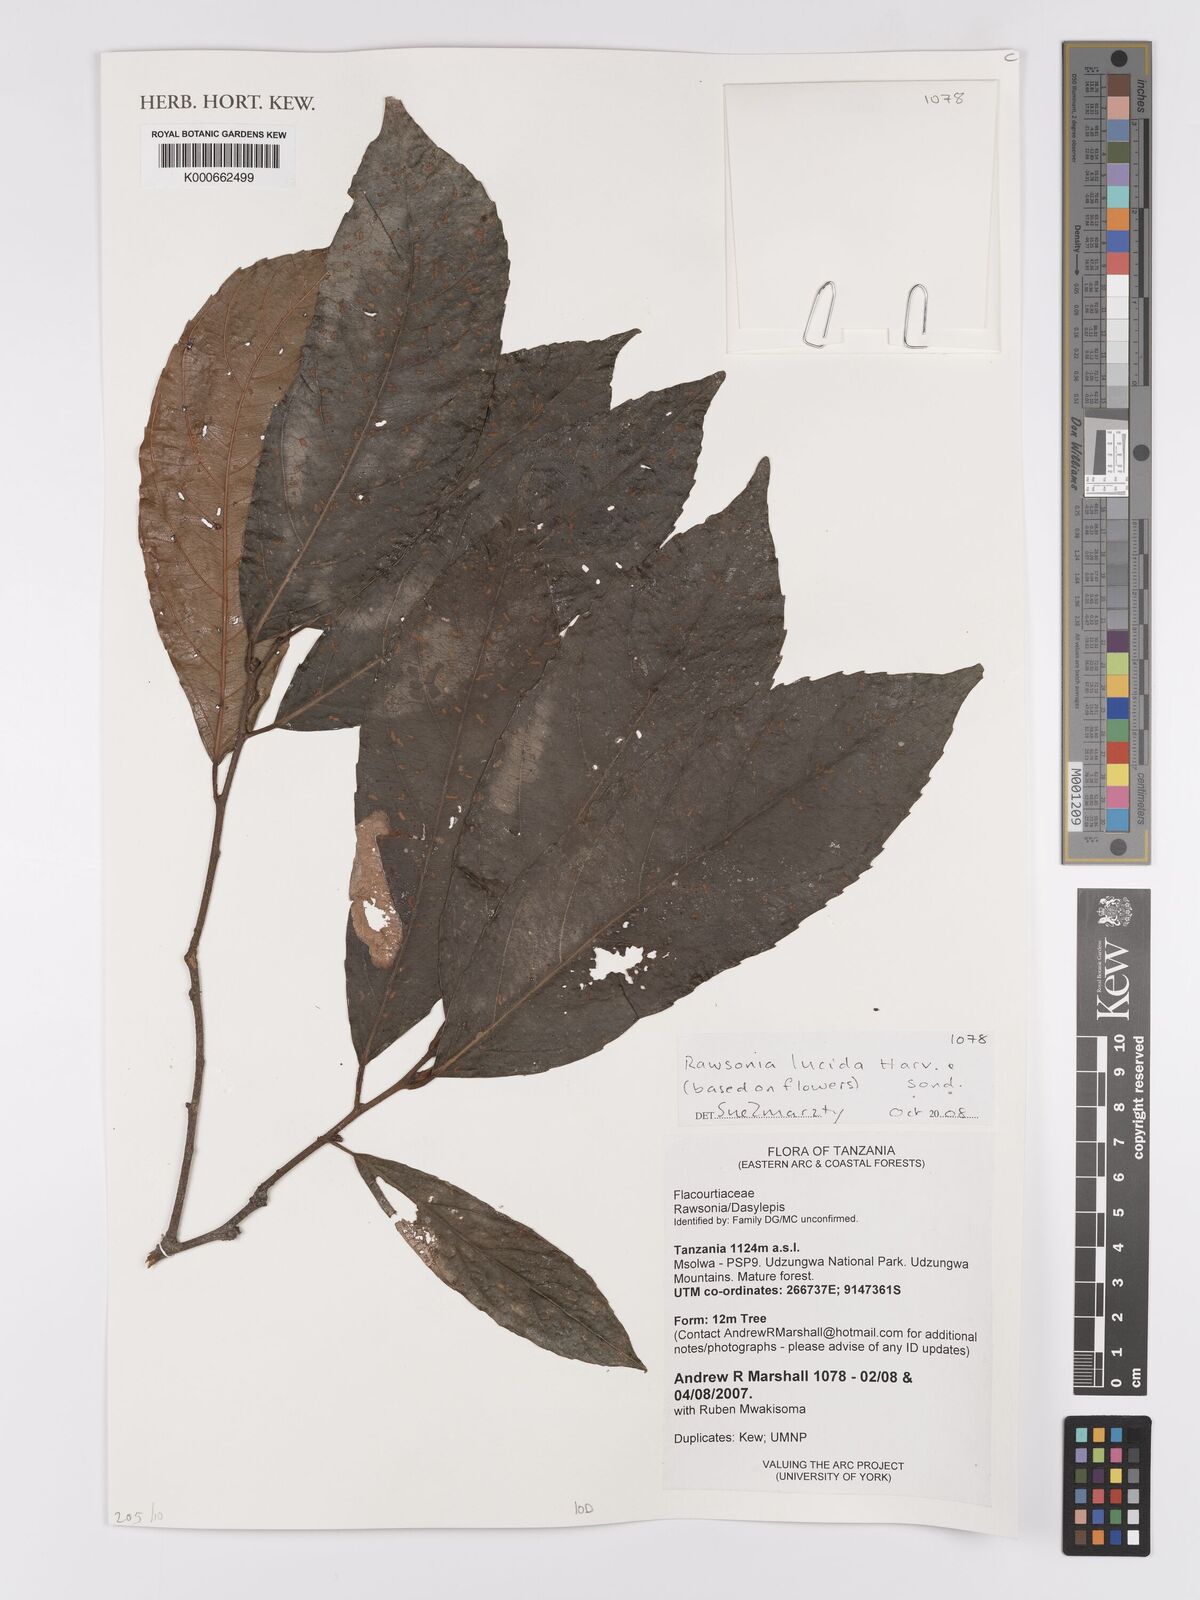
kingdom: Plantae
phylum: Tracheophyta
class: Magnoliopsida
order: Malpighiales
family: Achariaceae
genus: Rawsonia
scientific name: Rawsonia lucida
